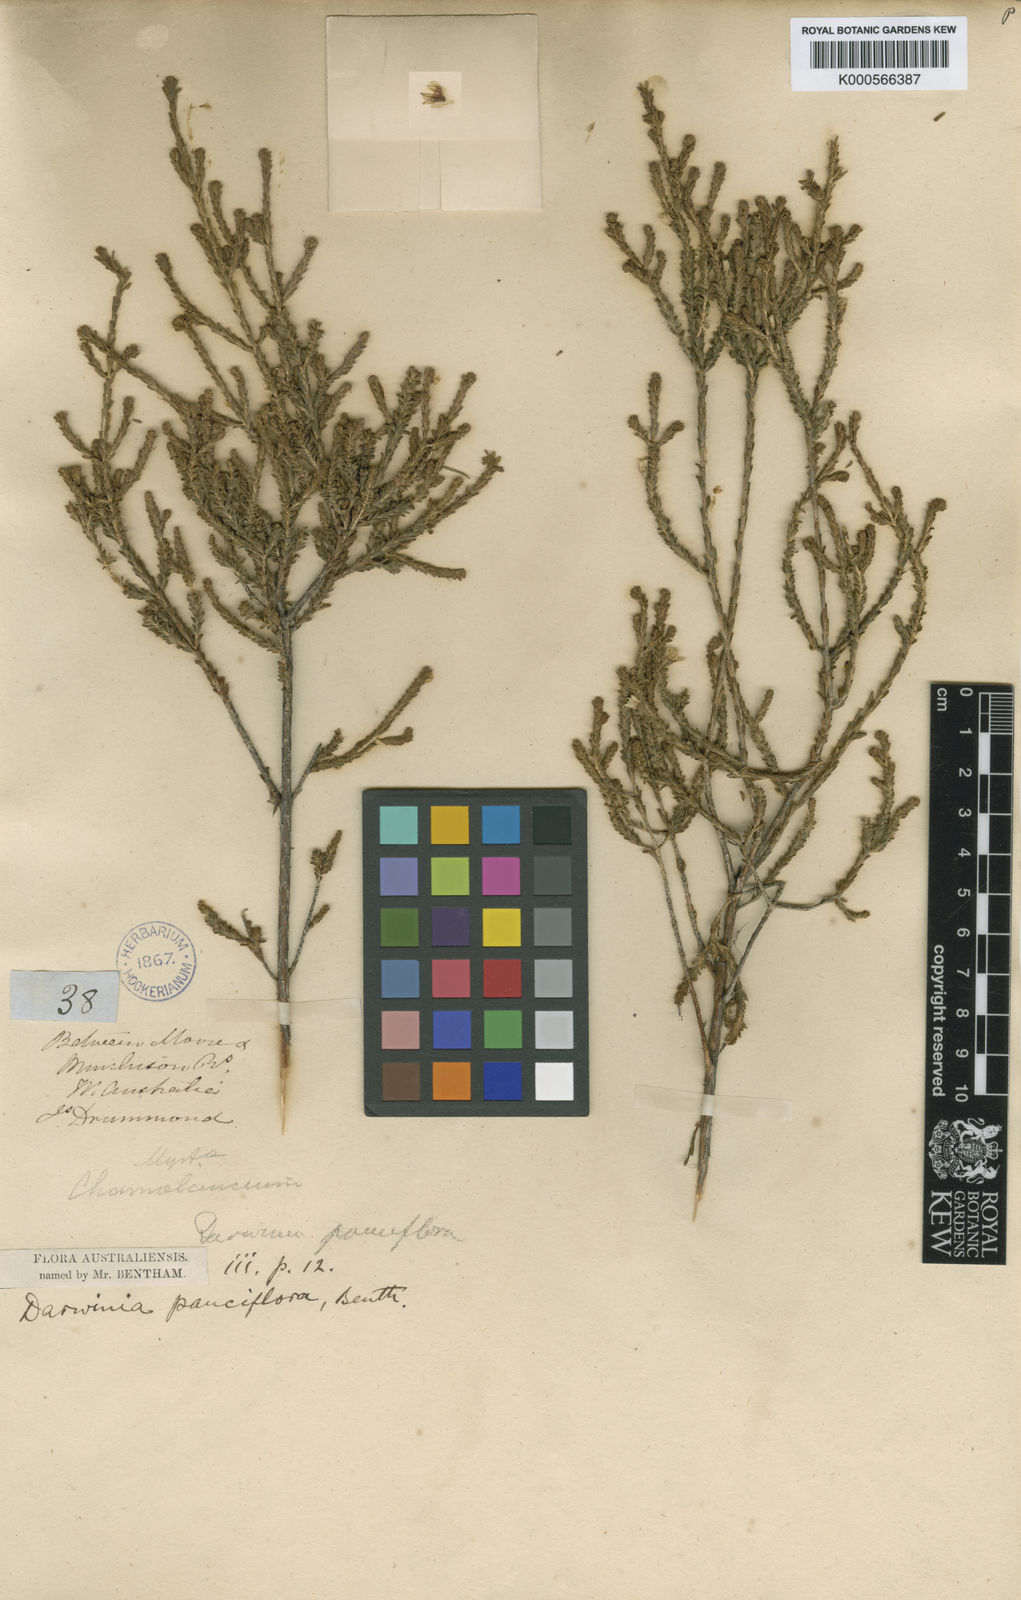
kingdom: Plantae
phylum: Tracheophyta
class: Magnoliopsida
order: Myrtales
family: Myrtaceae
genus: Darwinia
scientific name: Darwinia pauciflora
